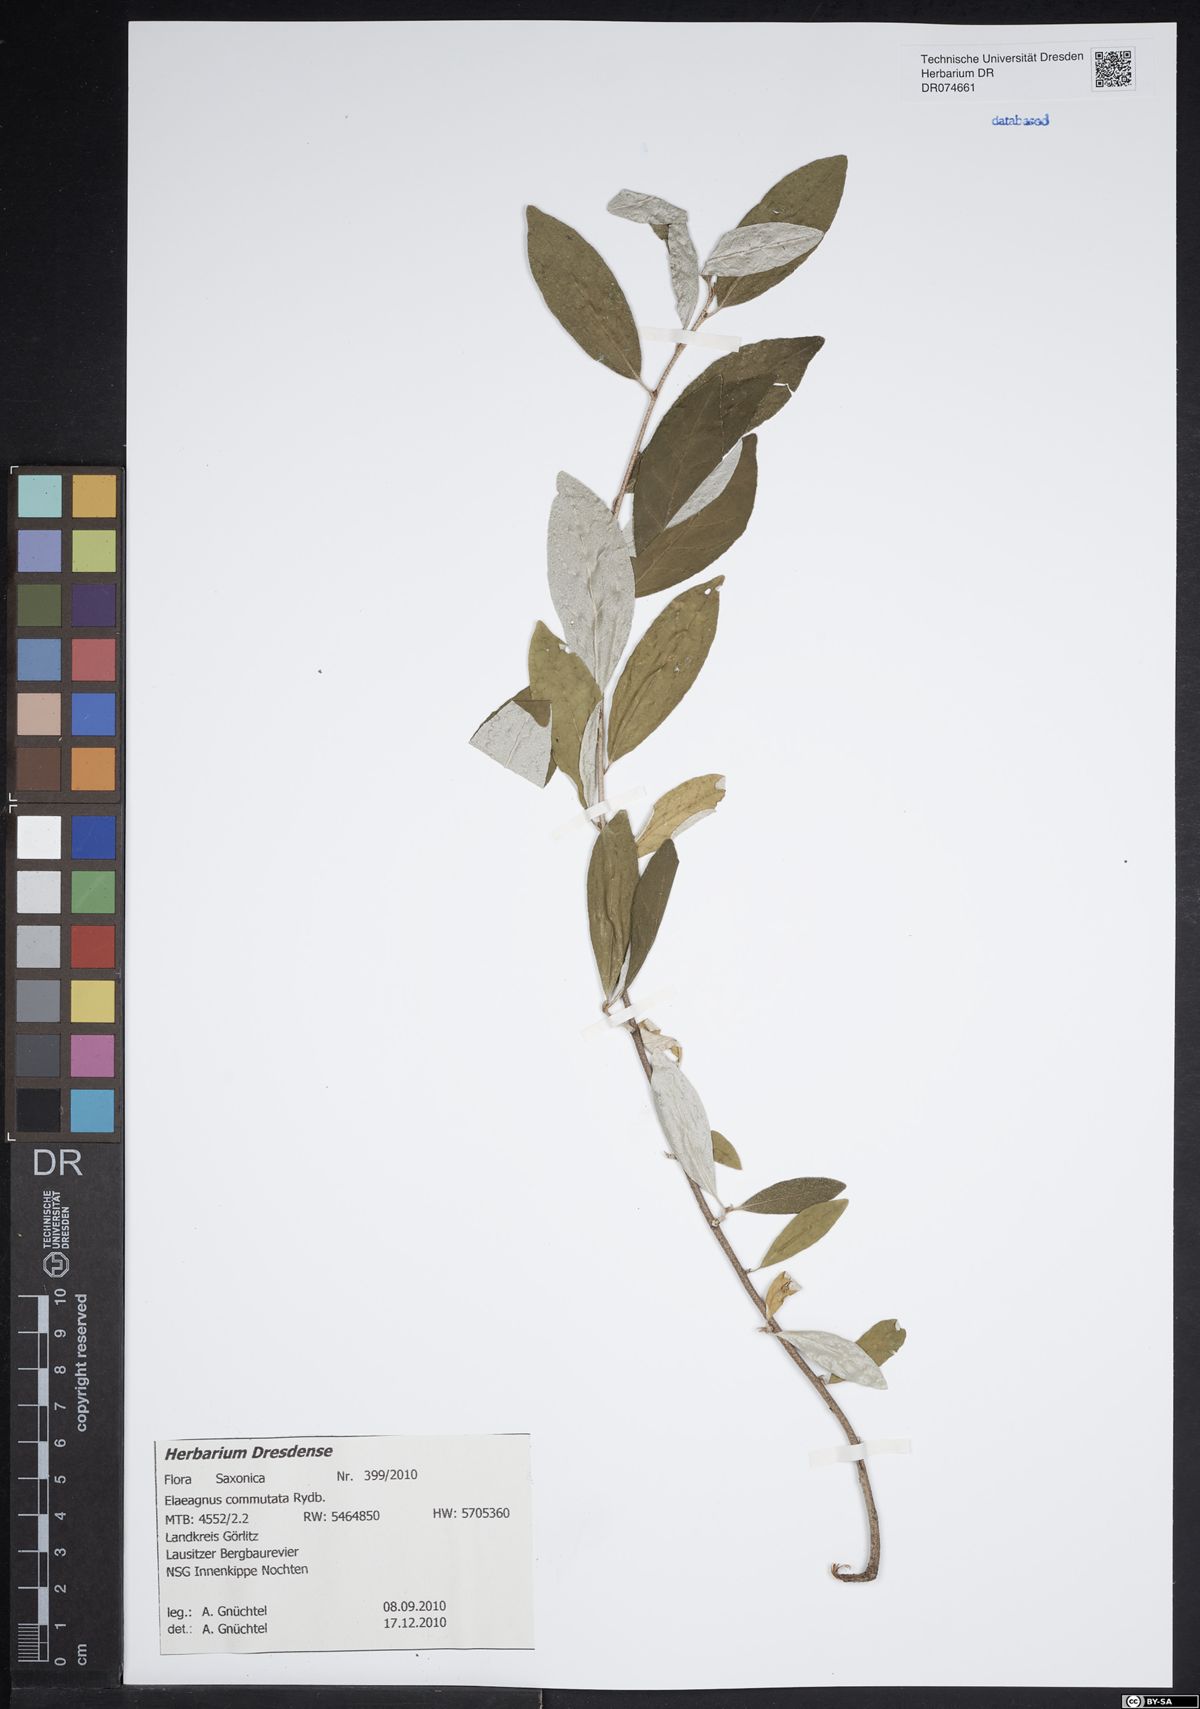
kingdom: Plantae
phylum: Tracheophyta
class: Magnoliopsida
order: Rosales
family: Elaeagnaceae
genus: Elaeagnus
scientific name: Elaeagnus commutata
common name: Silverberry
